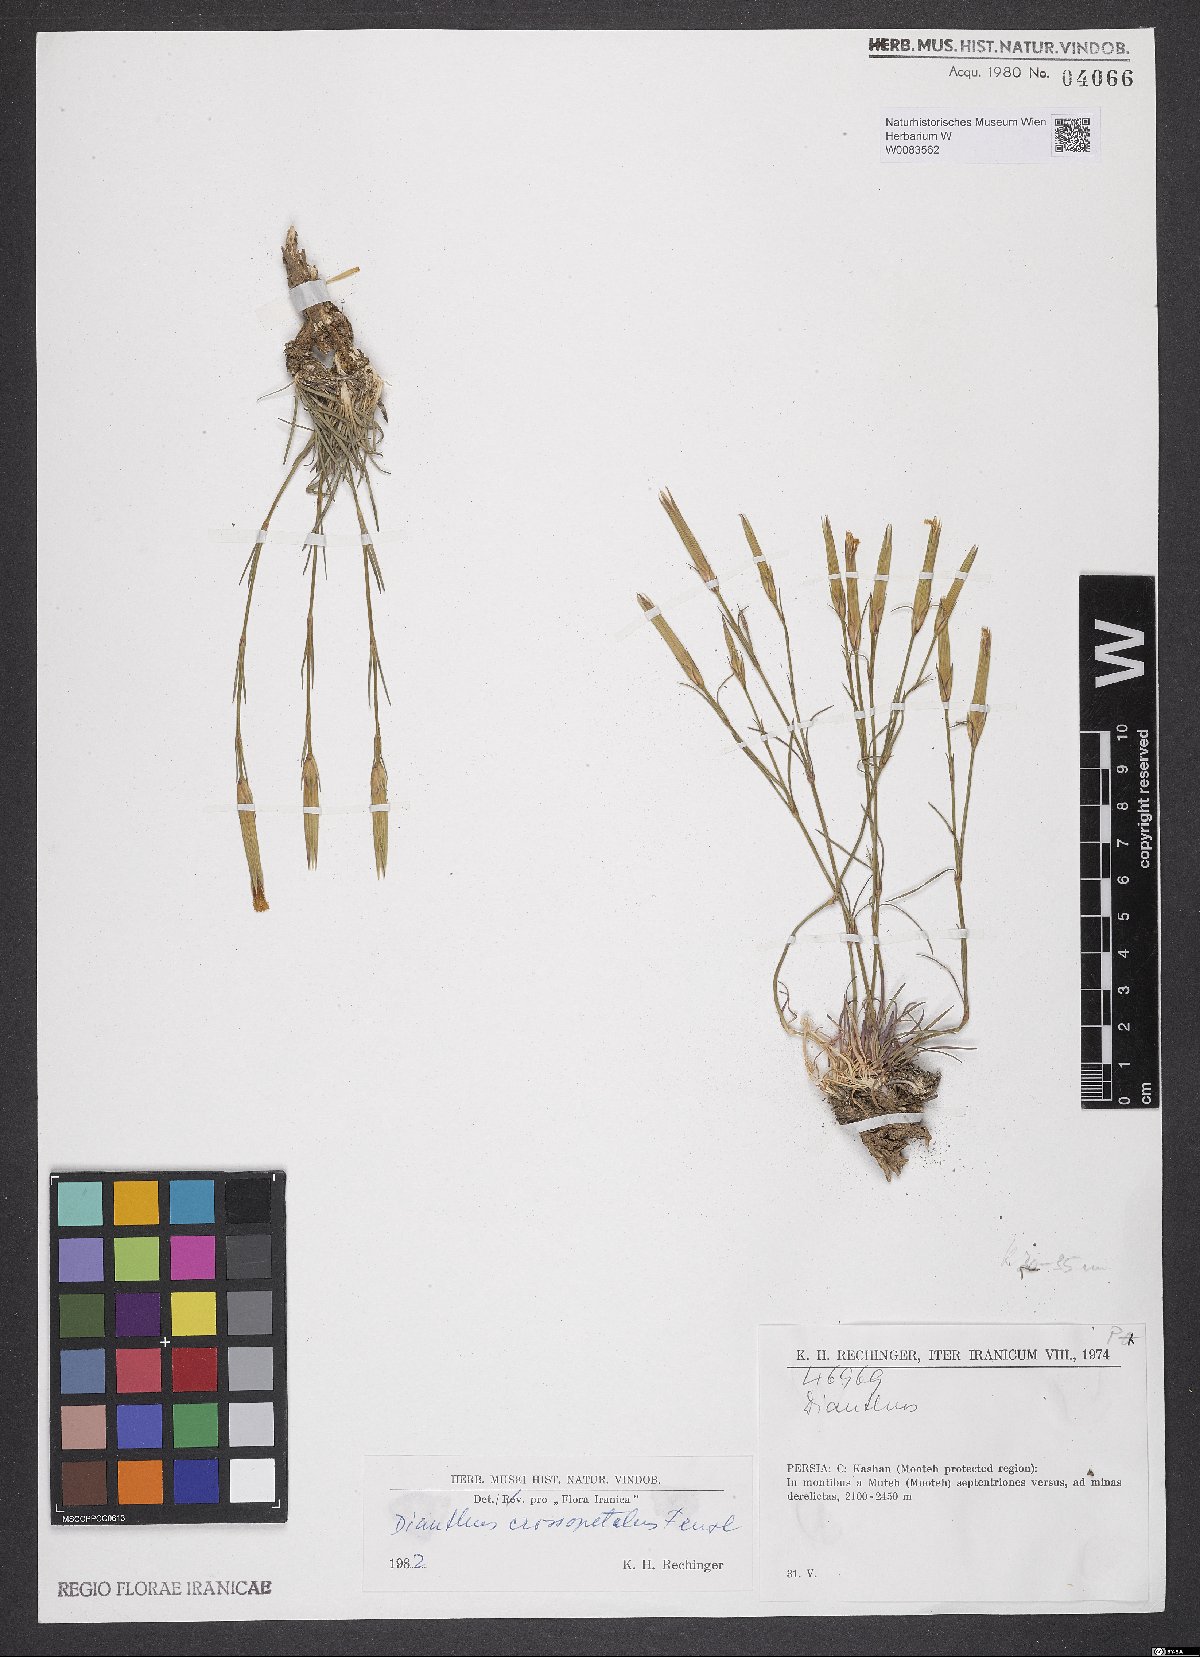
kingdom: Plantae
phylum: Tracheophyta
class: Magnoliopsida
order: Caryophyllales
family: Caryophyllaceae
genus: Dianthus
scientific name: Dianthus crossopetalus
